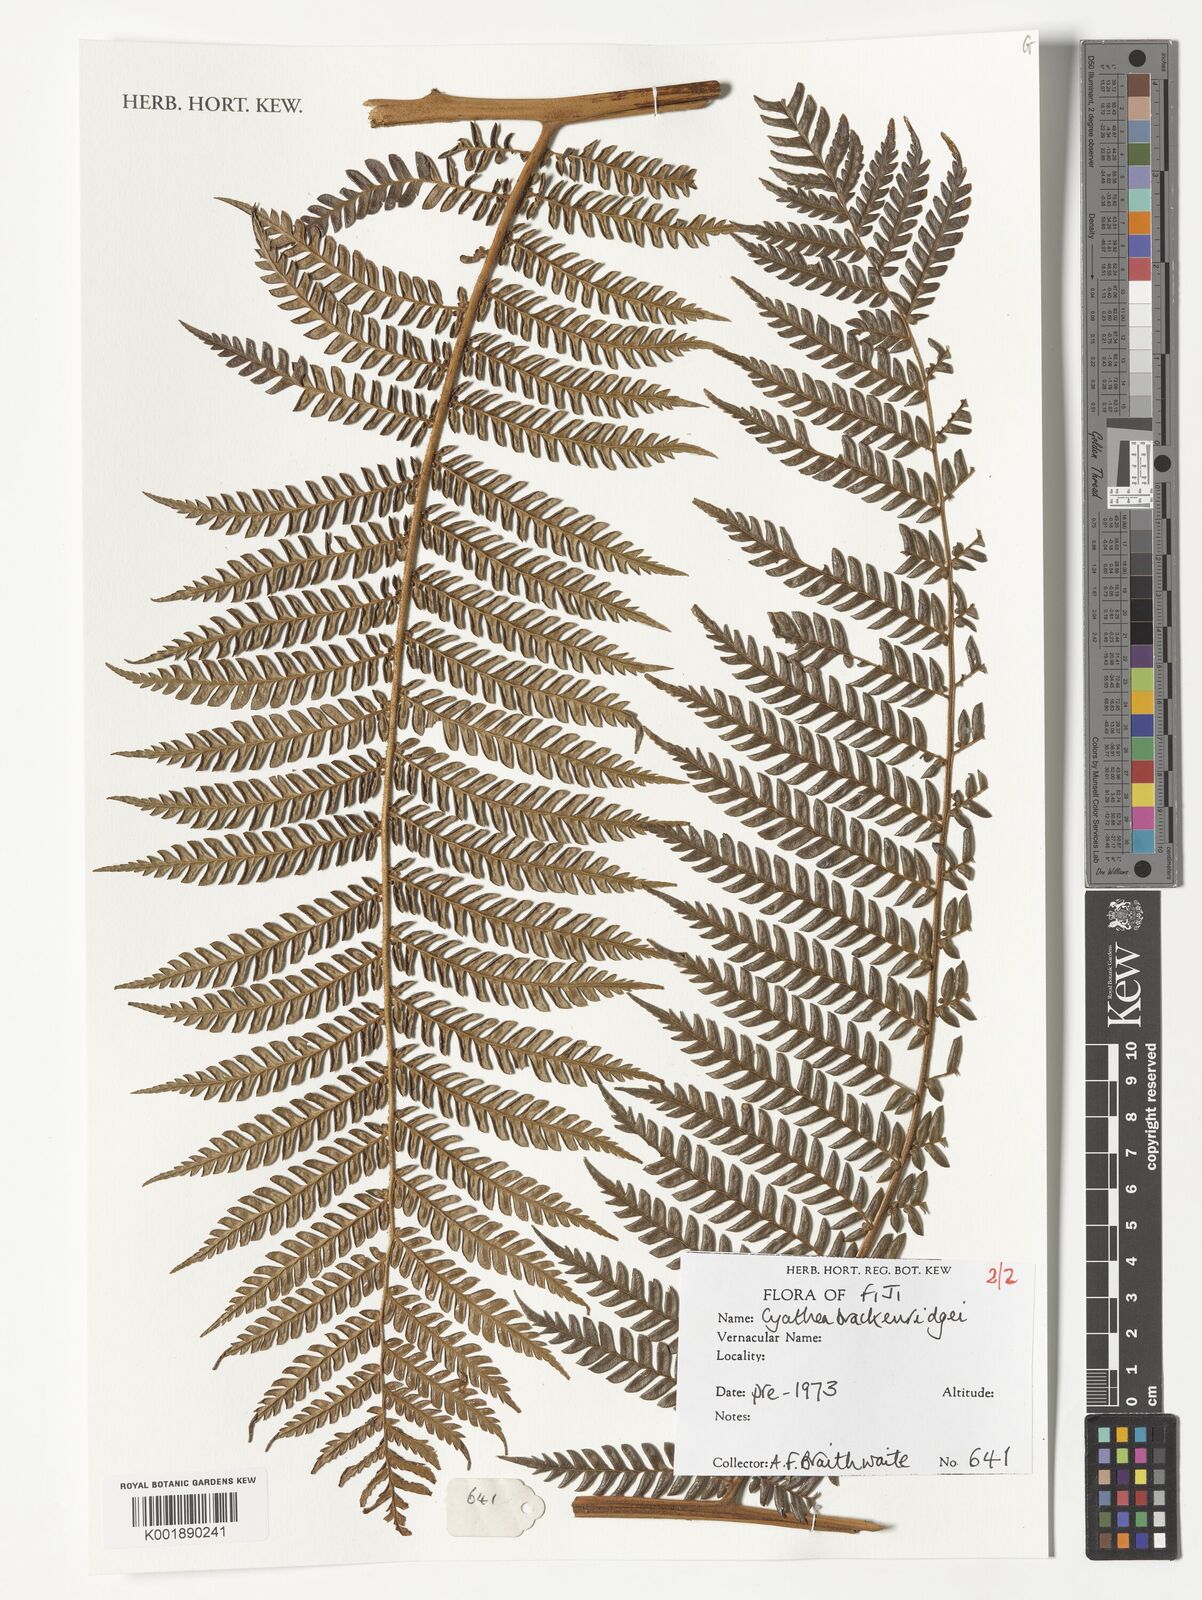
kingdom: Plantae
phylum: Tracheophyta
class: Polypodiopsida
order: Cyatheales
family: Cyatheaceae
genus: Sphaeropteris
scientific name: Sphaeropteris brackenridgei
